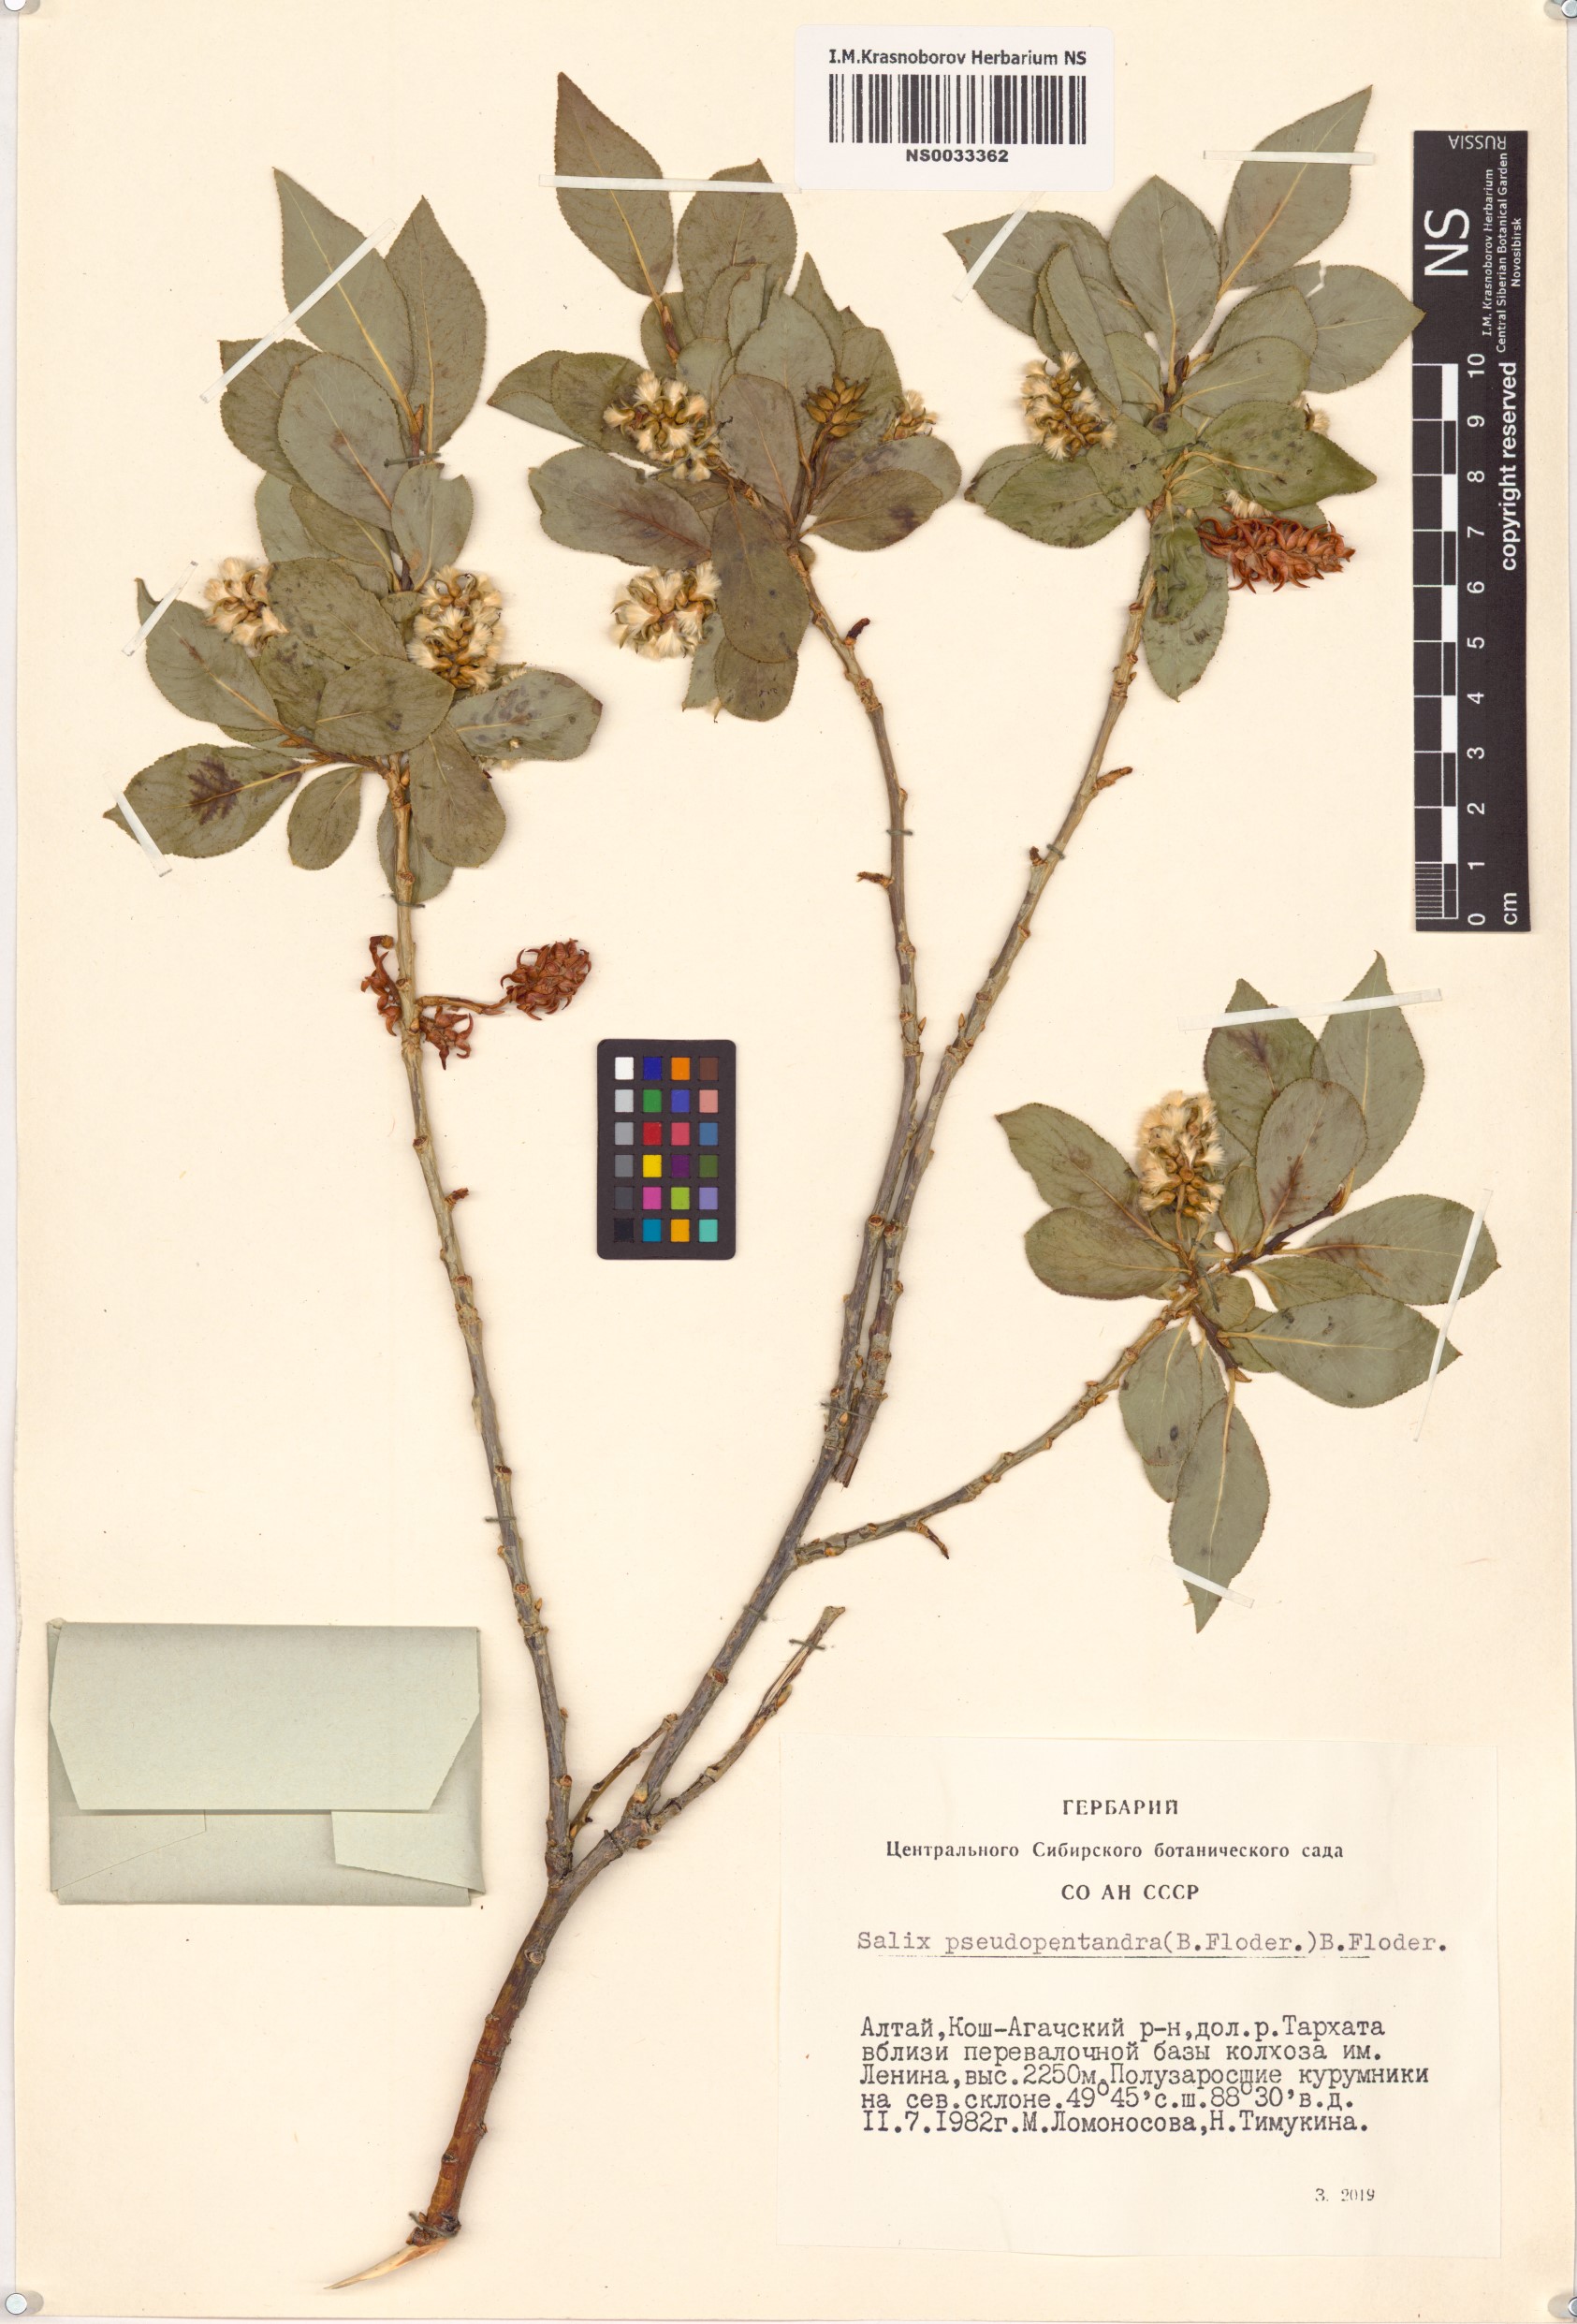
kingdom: Plantae
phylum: Tracheophyta
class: Magnoliopsida
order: Malpighiales
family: Salicaceae
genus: Salix
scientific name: Salix pseudopentandra
